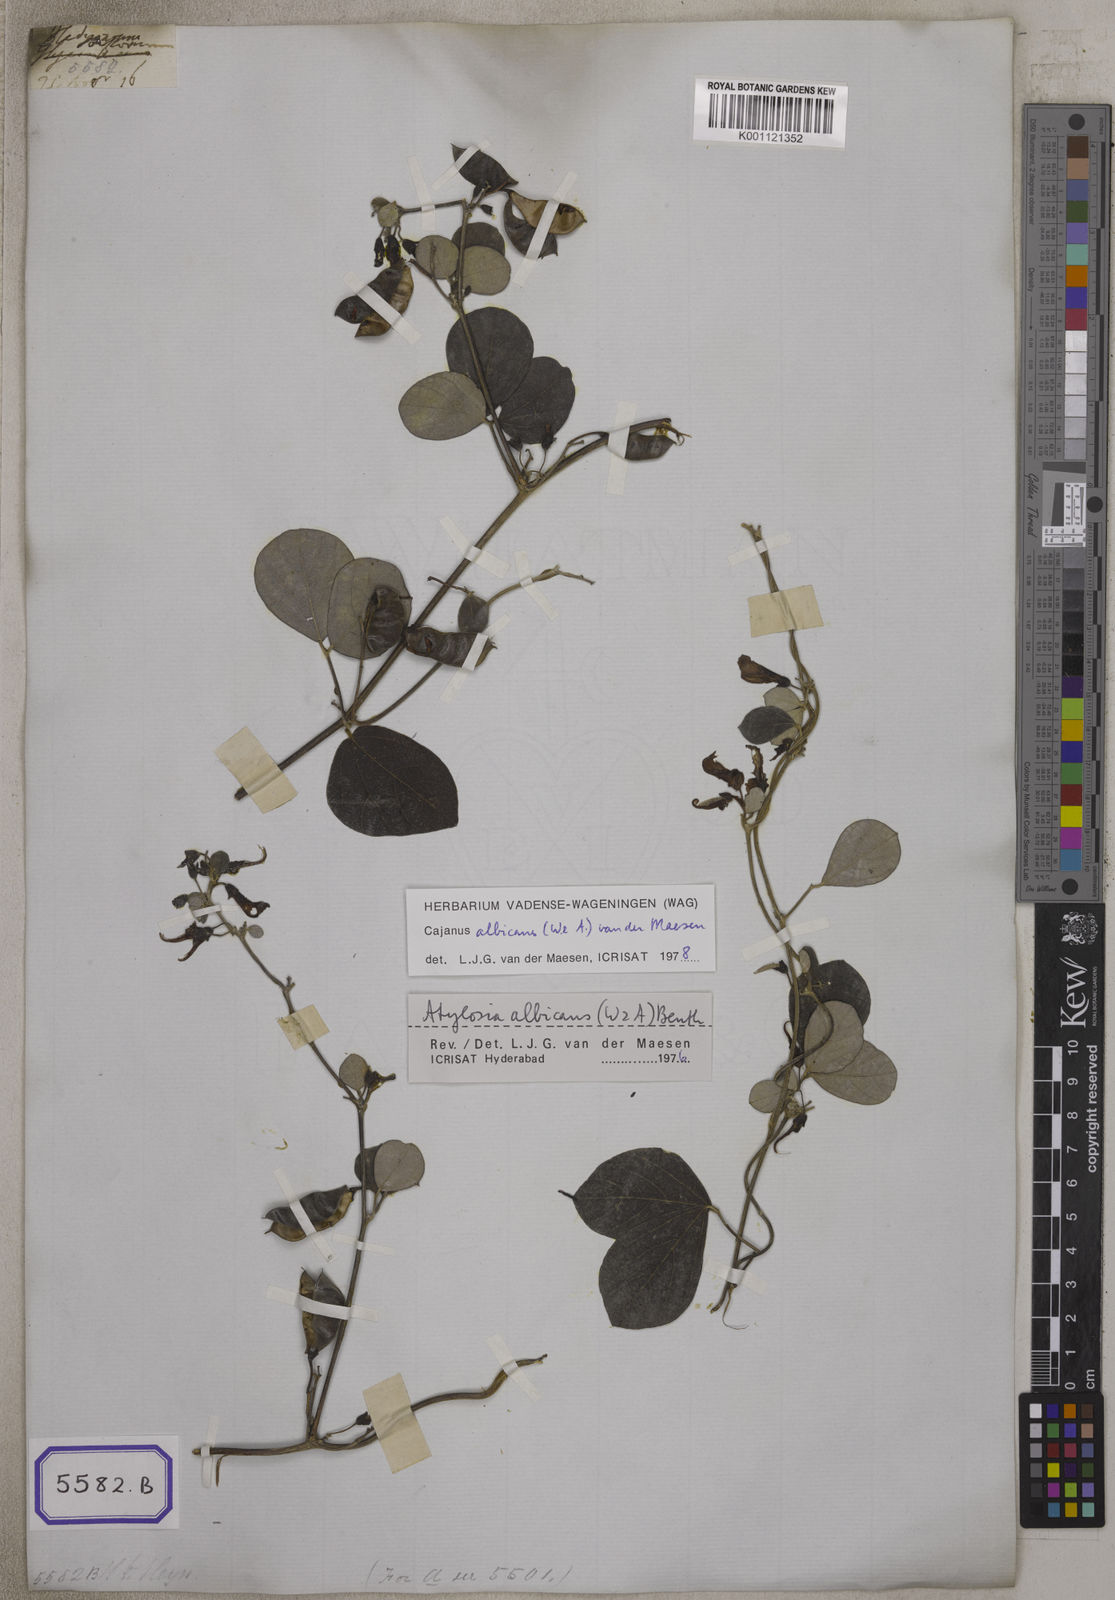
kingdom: Plantae
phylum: Tracheophyta
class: Magnoliopsida
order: Fabales
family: Fabaceae
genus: Cajanus
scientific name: Cajanus
